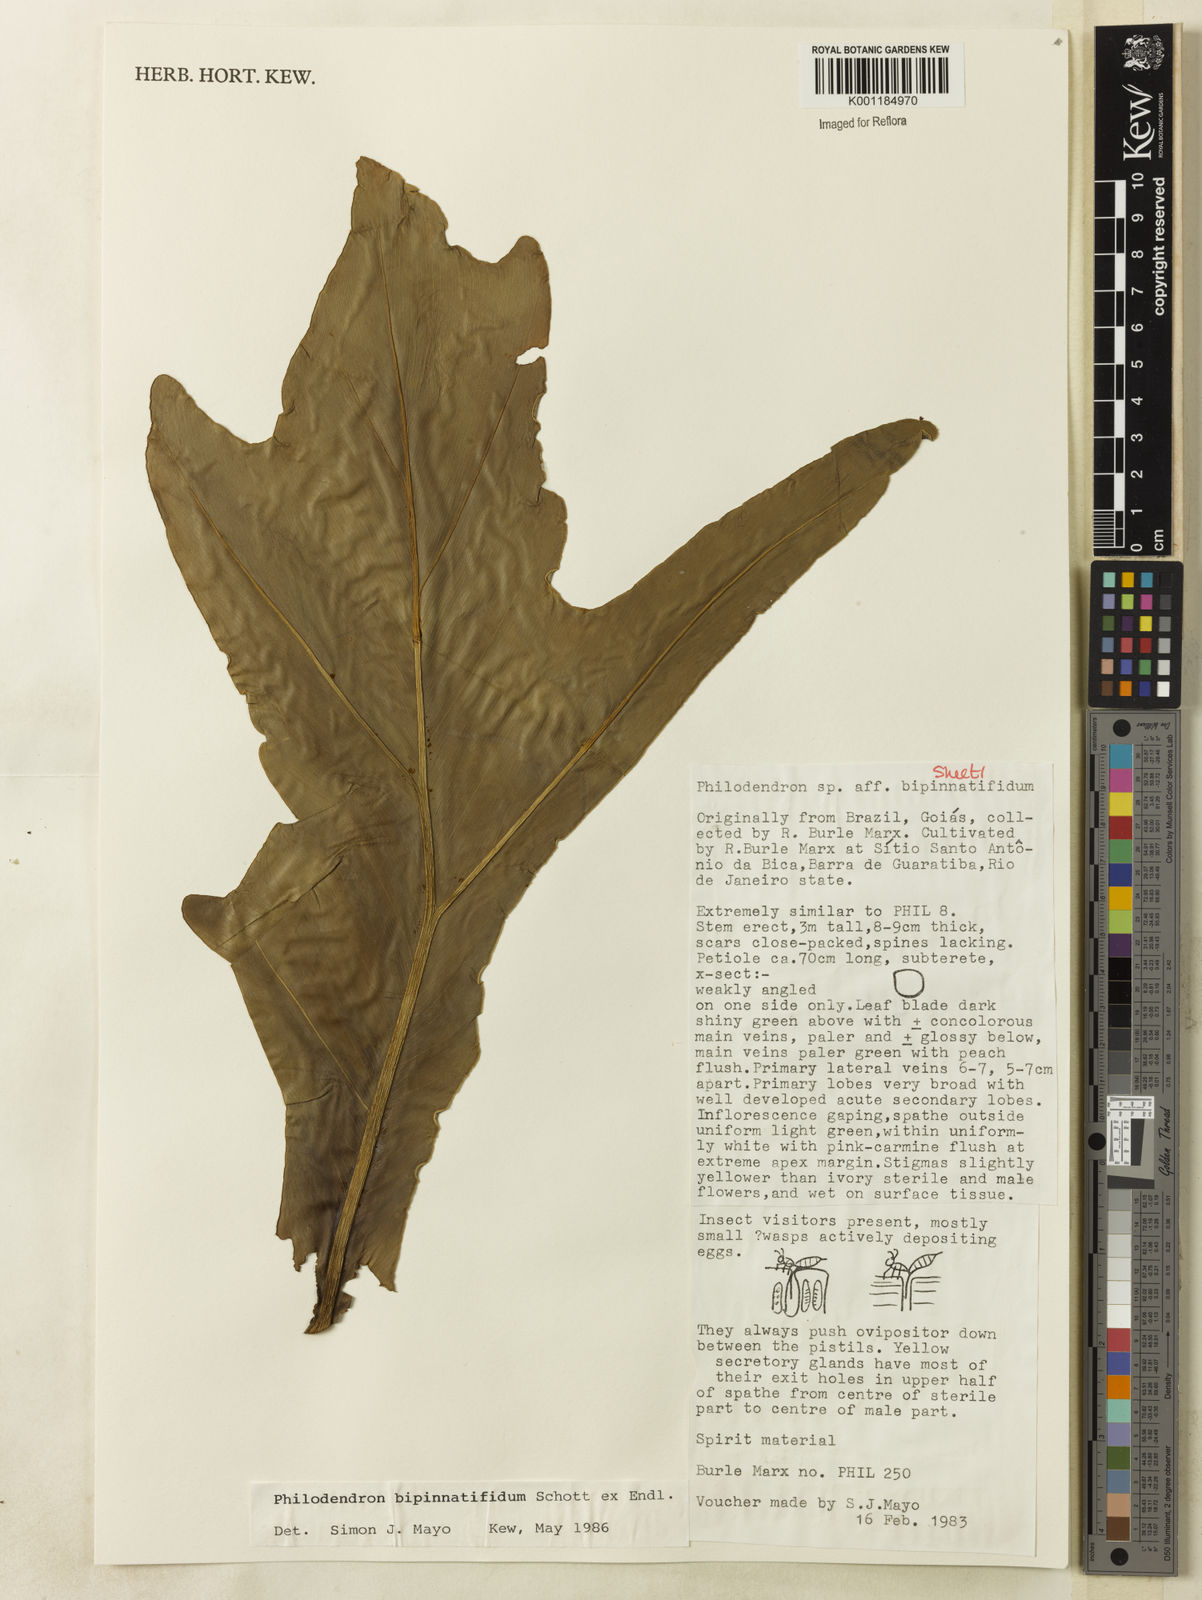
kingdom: Plantae
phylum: Tracheophyta
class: Liliopsida
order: Alismatales
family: Araceae
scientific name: Araceae
